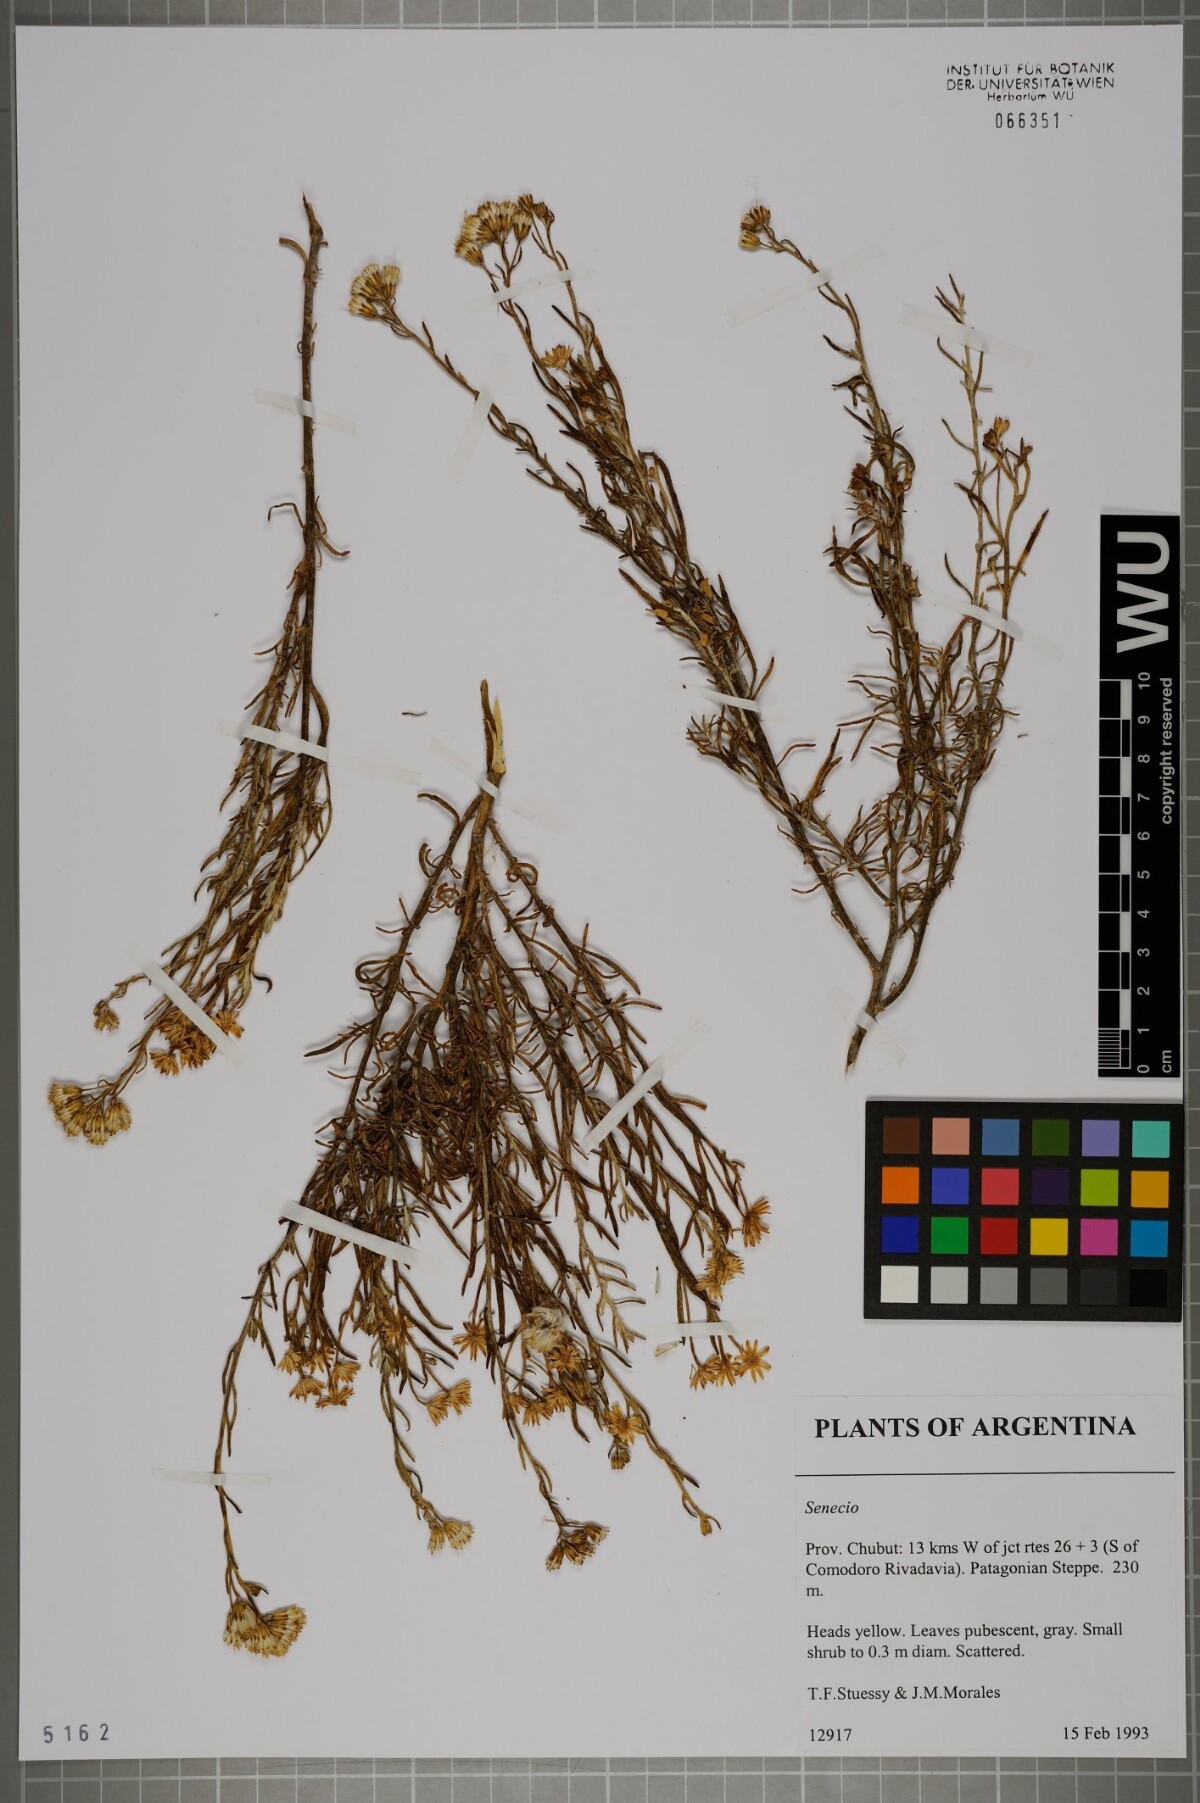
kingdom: Plantae
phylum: Tracheophyta
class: Magnoliopsida
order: Asterales
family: Asteraceae
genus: Senecio
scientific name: Senecio
